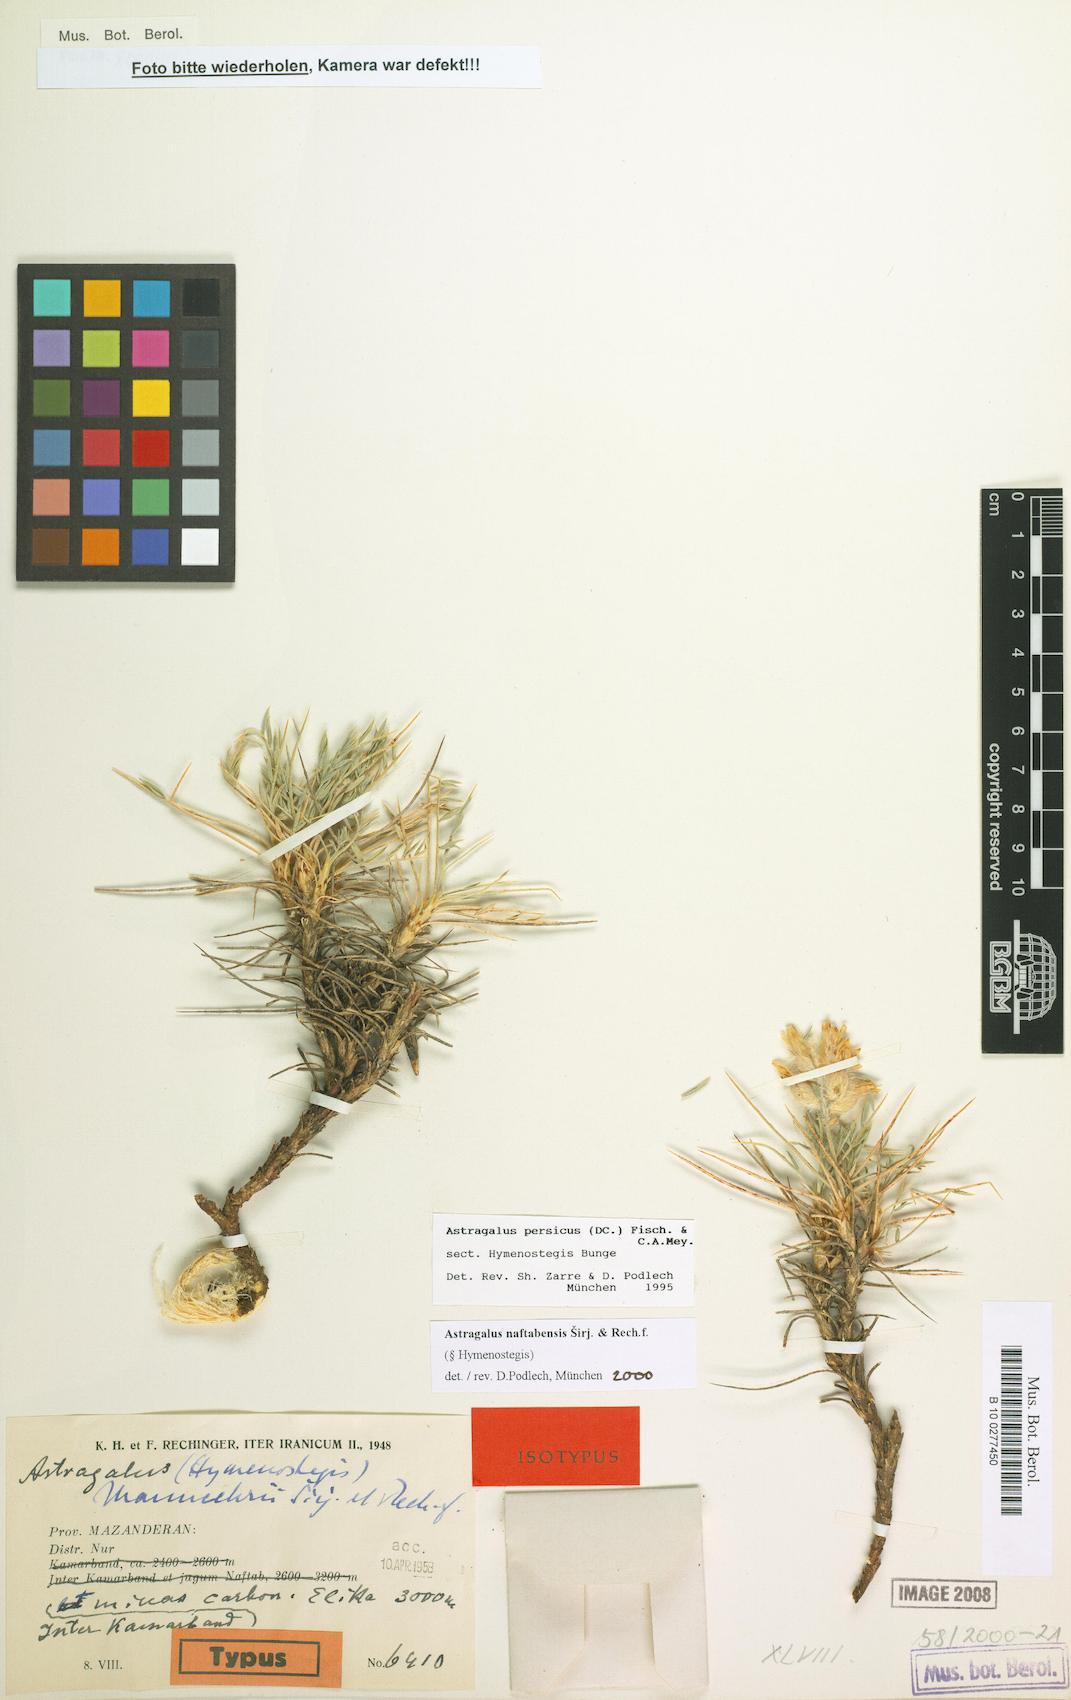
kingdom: Plantae
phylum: Tracheophyta
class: Magnoliopsida
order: Fabales
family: Fabaceae
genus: Astragalus
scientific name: Astragalus naftabensis
